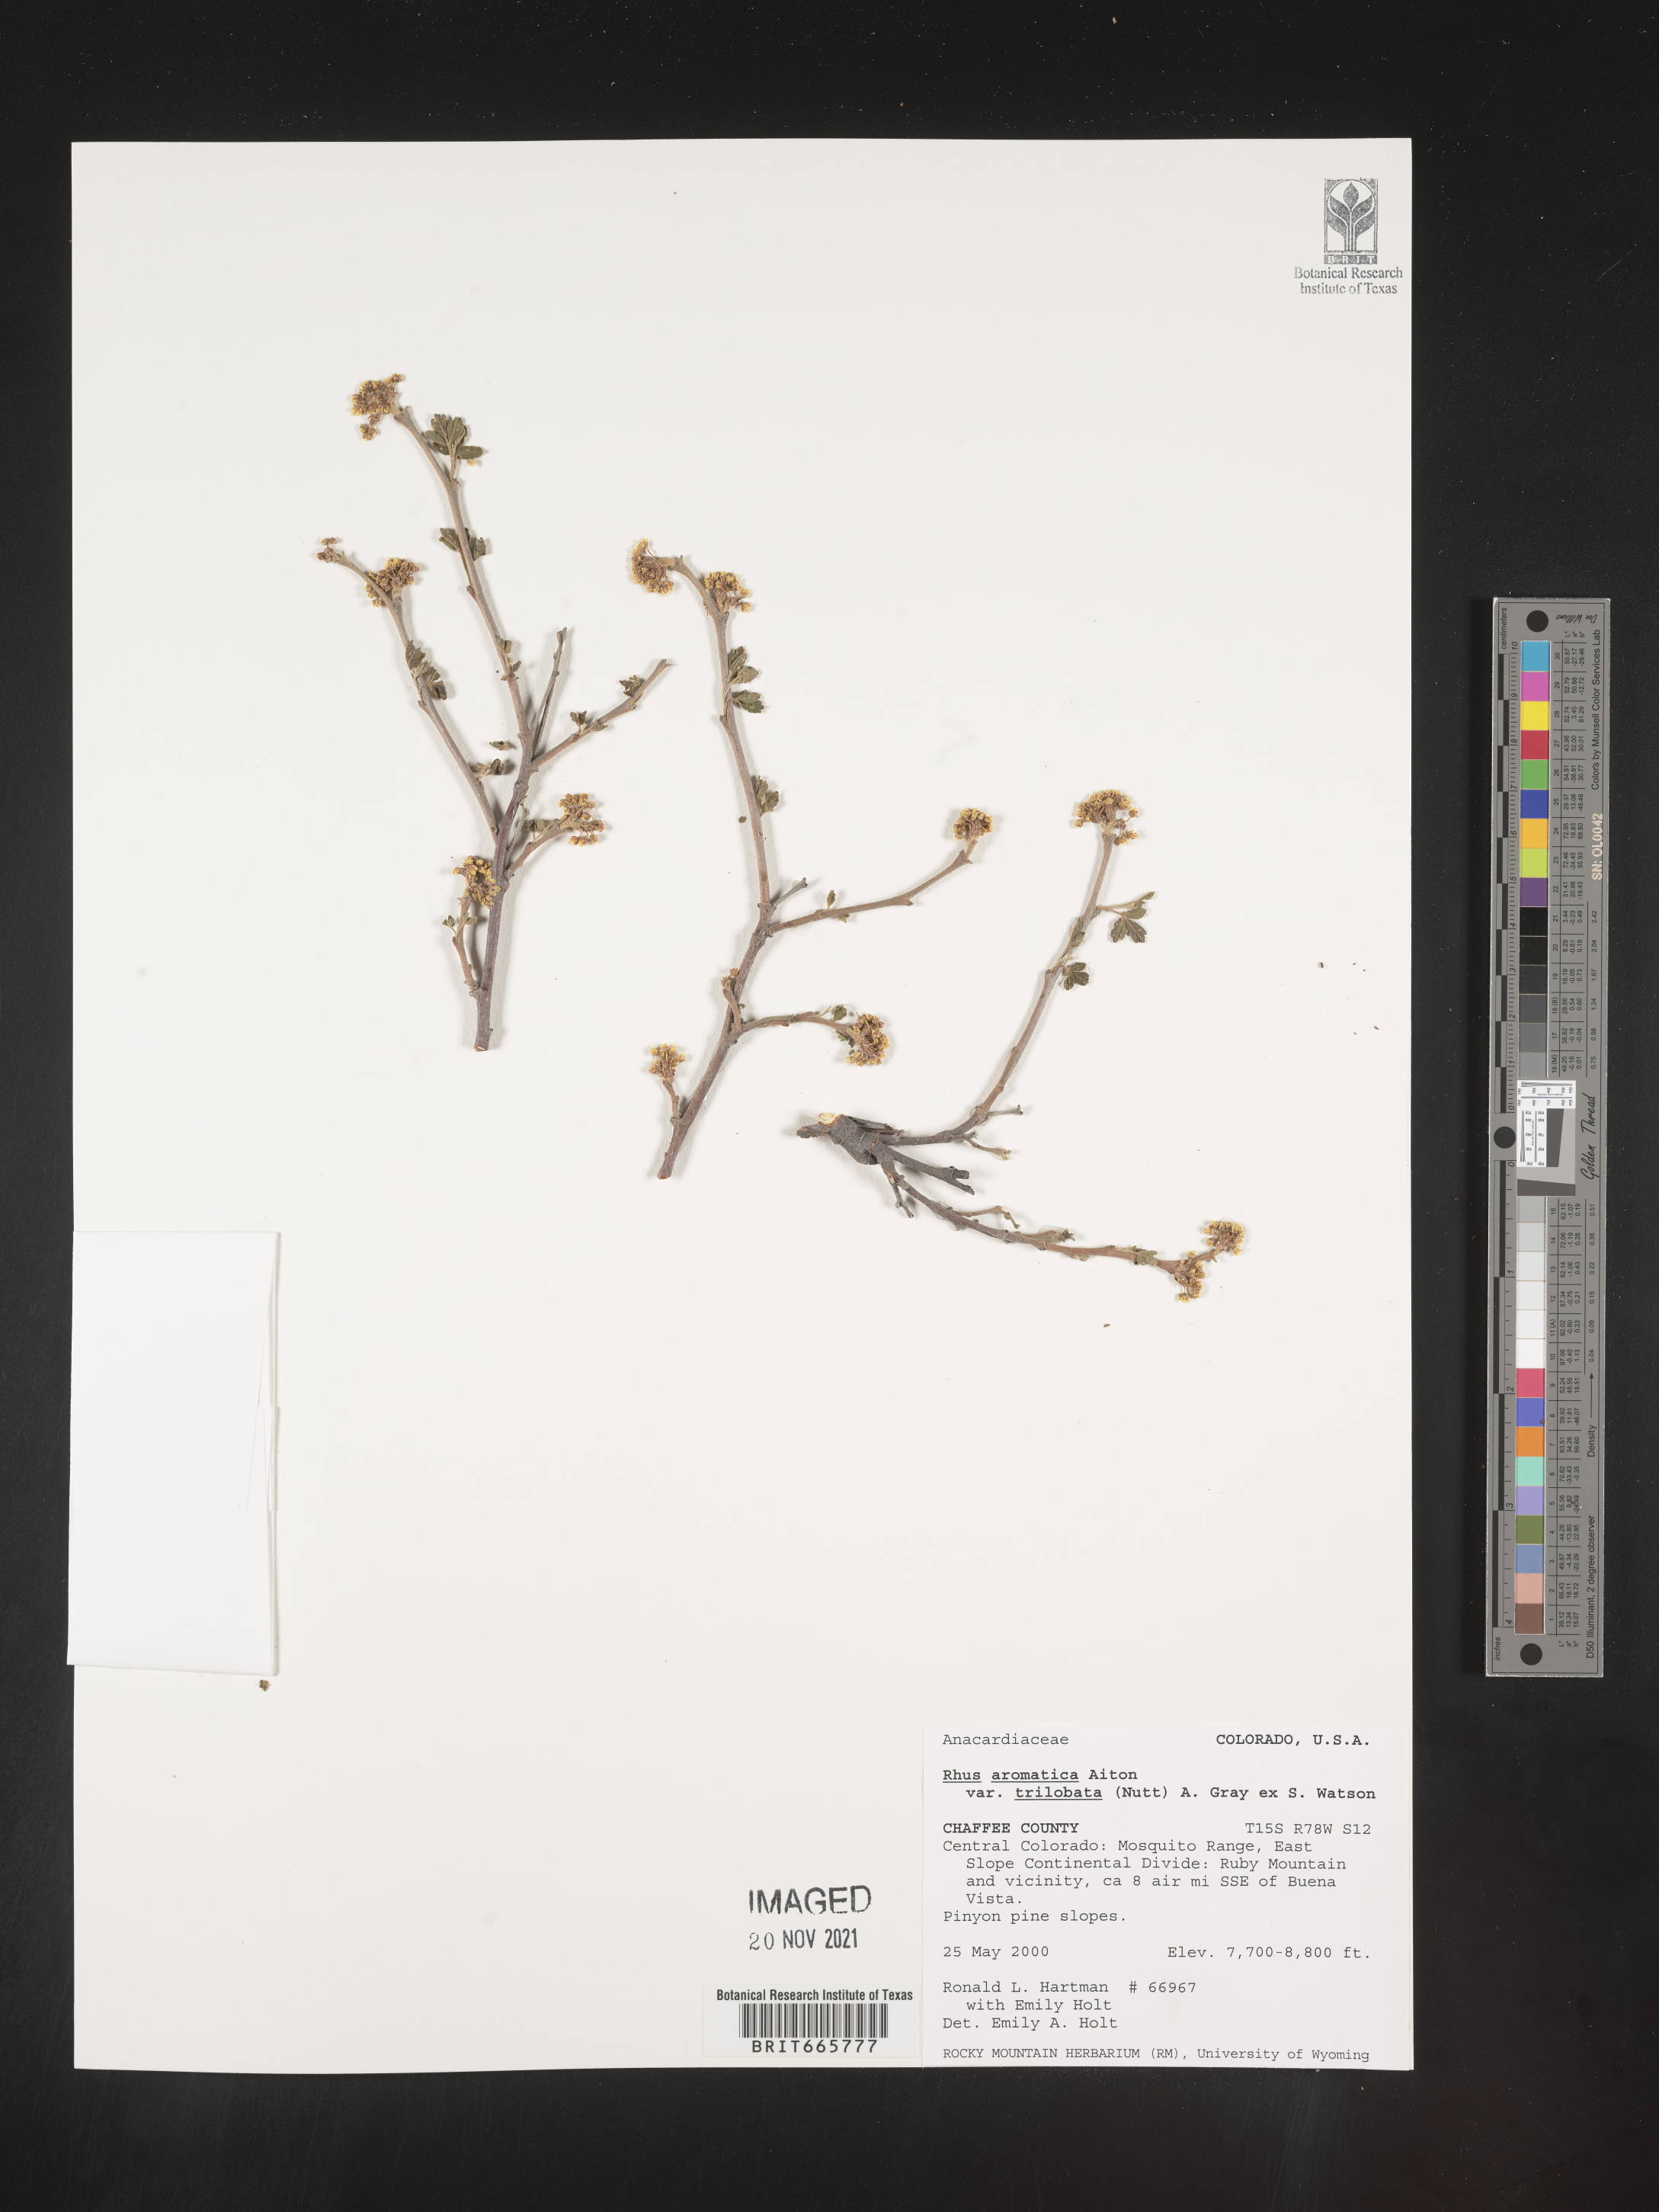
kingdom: Plantae
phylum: Tracheophyta
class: Magnoliopsida
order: Sapindales
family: Anacardiaceae
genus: Rhus
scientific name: Rhus aromatica
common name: Aromatic sumac
